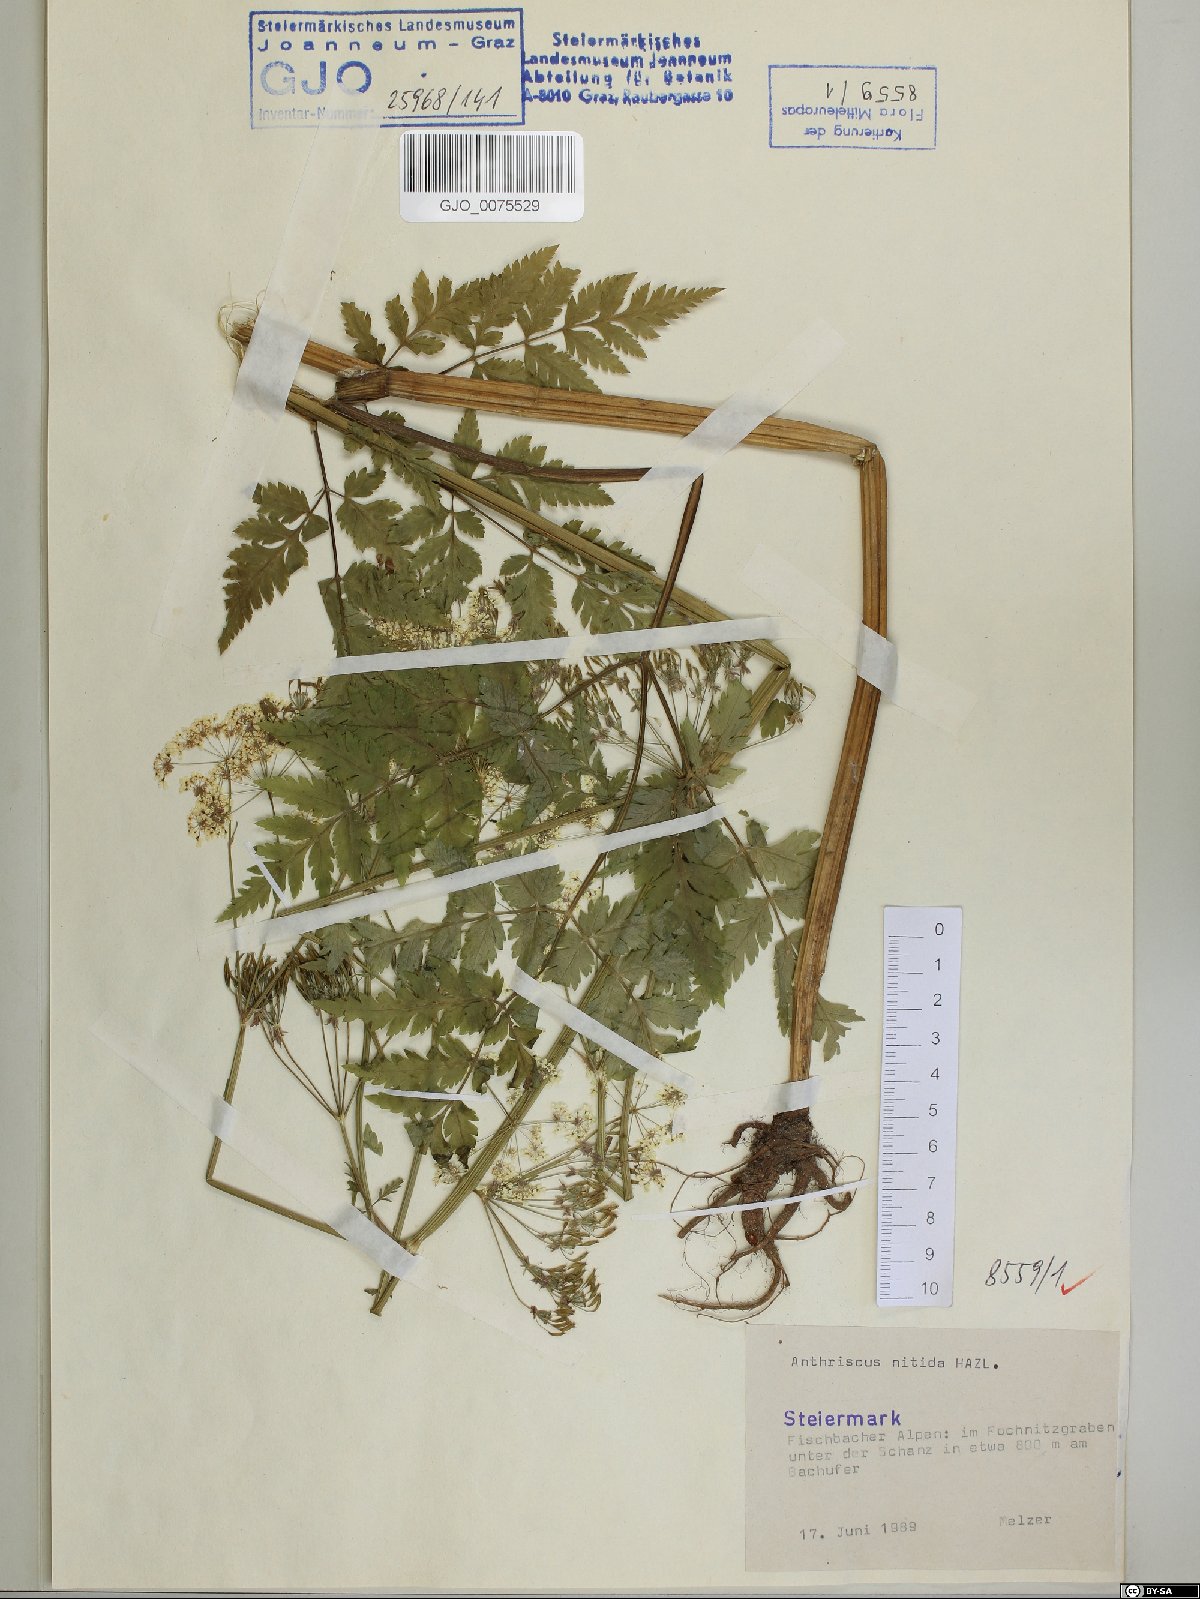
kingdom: Plantae
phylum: Tracheophyta
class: Magnoliopsida
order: Apiales
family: Apiaceae
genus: Anthriscus
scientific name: Anthriscus nitida
